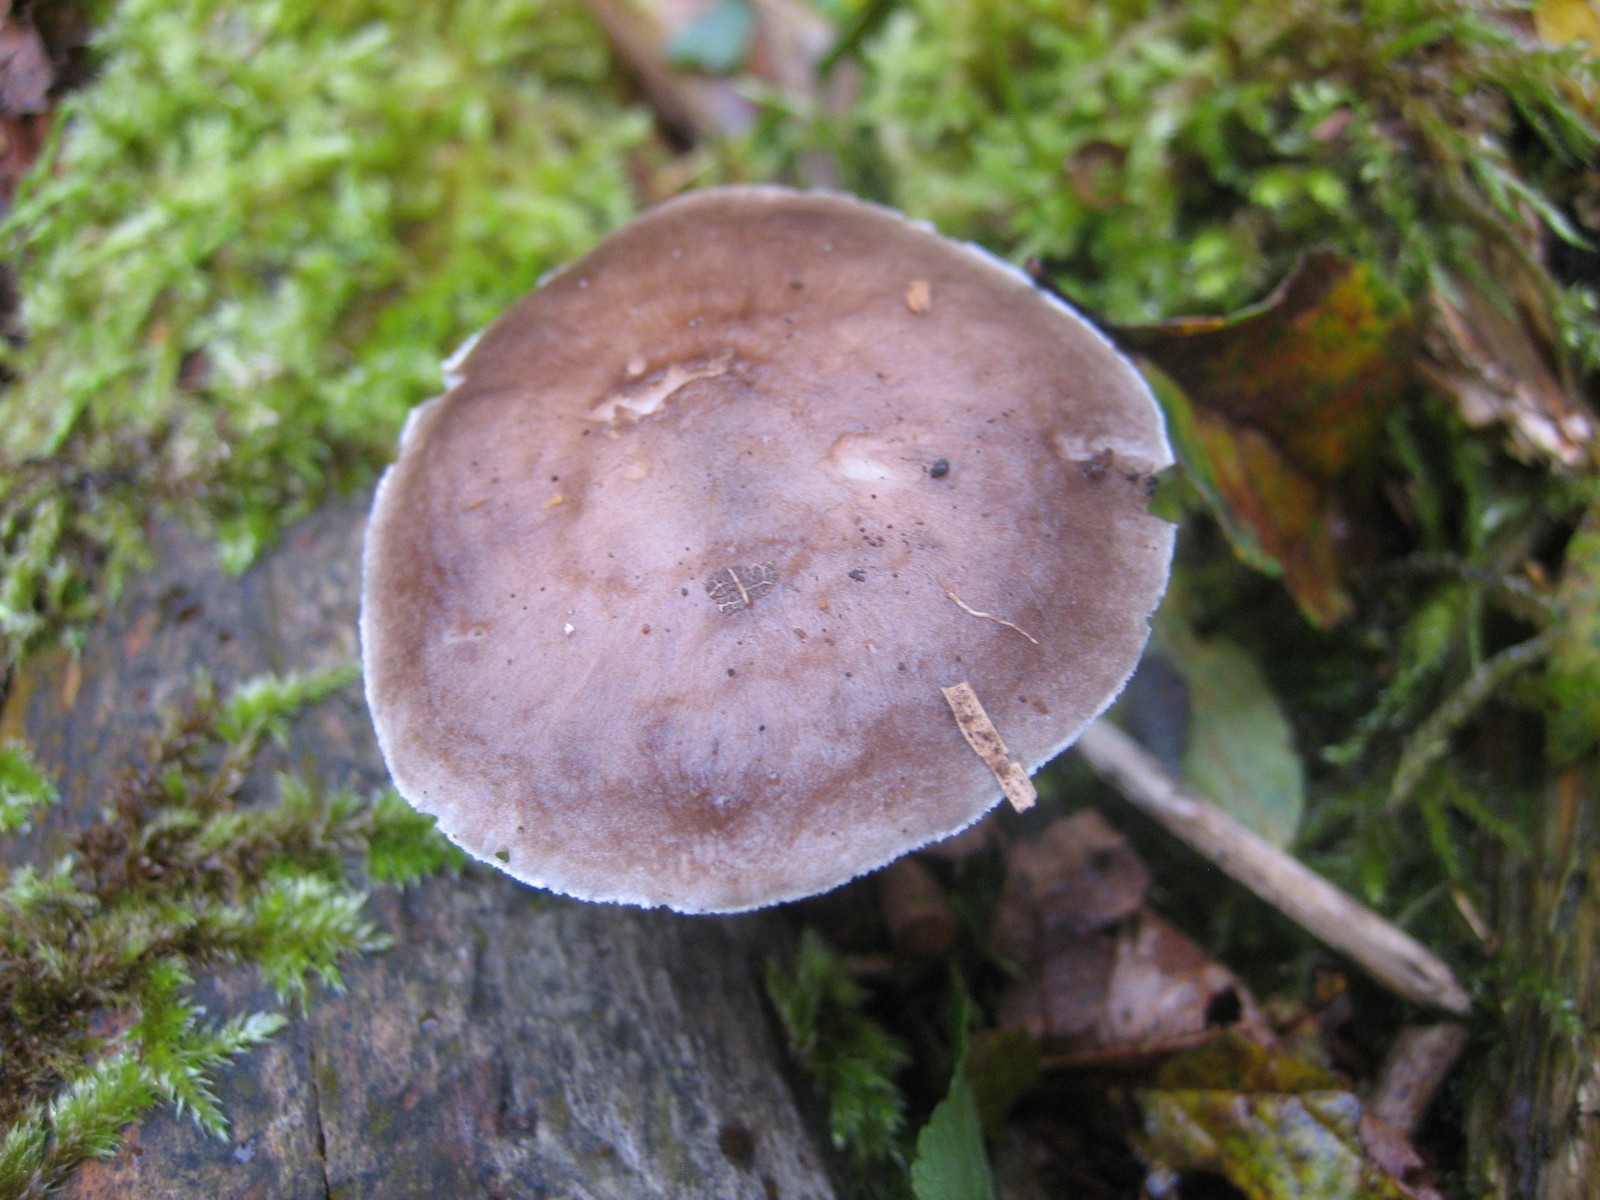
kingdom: Fungi
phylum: Basidiomycota
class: Agaricomycetes
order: Agaricales
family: Pluteaceae
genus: Pluteus
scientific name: Pluteus cervinus
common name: sodfarvet skærmhat
